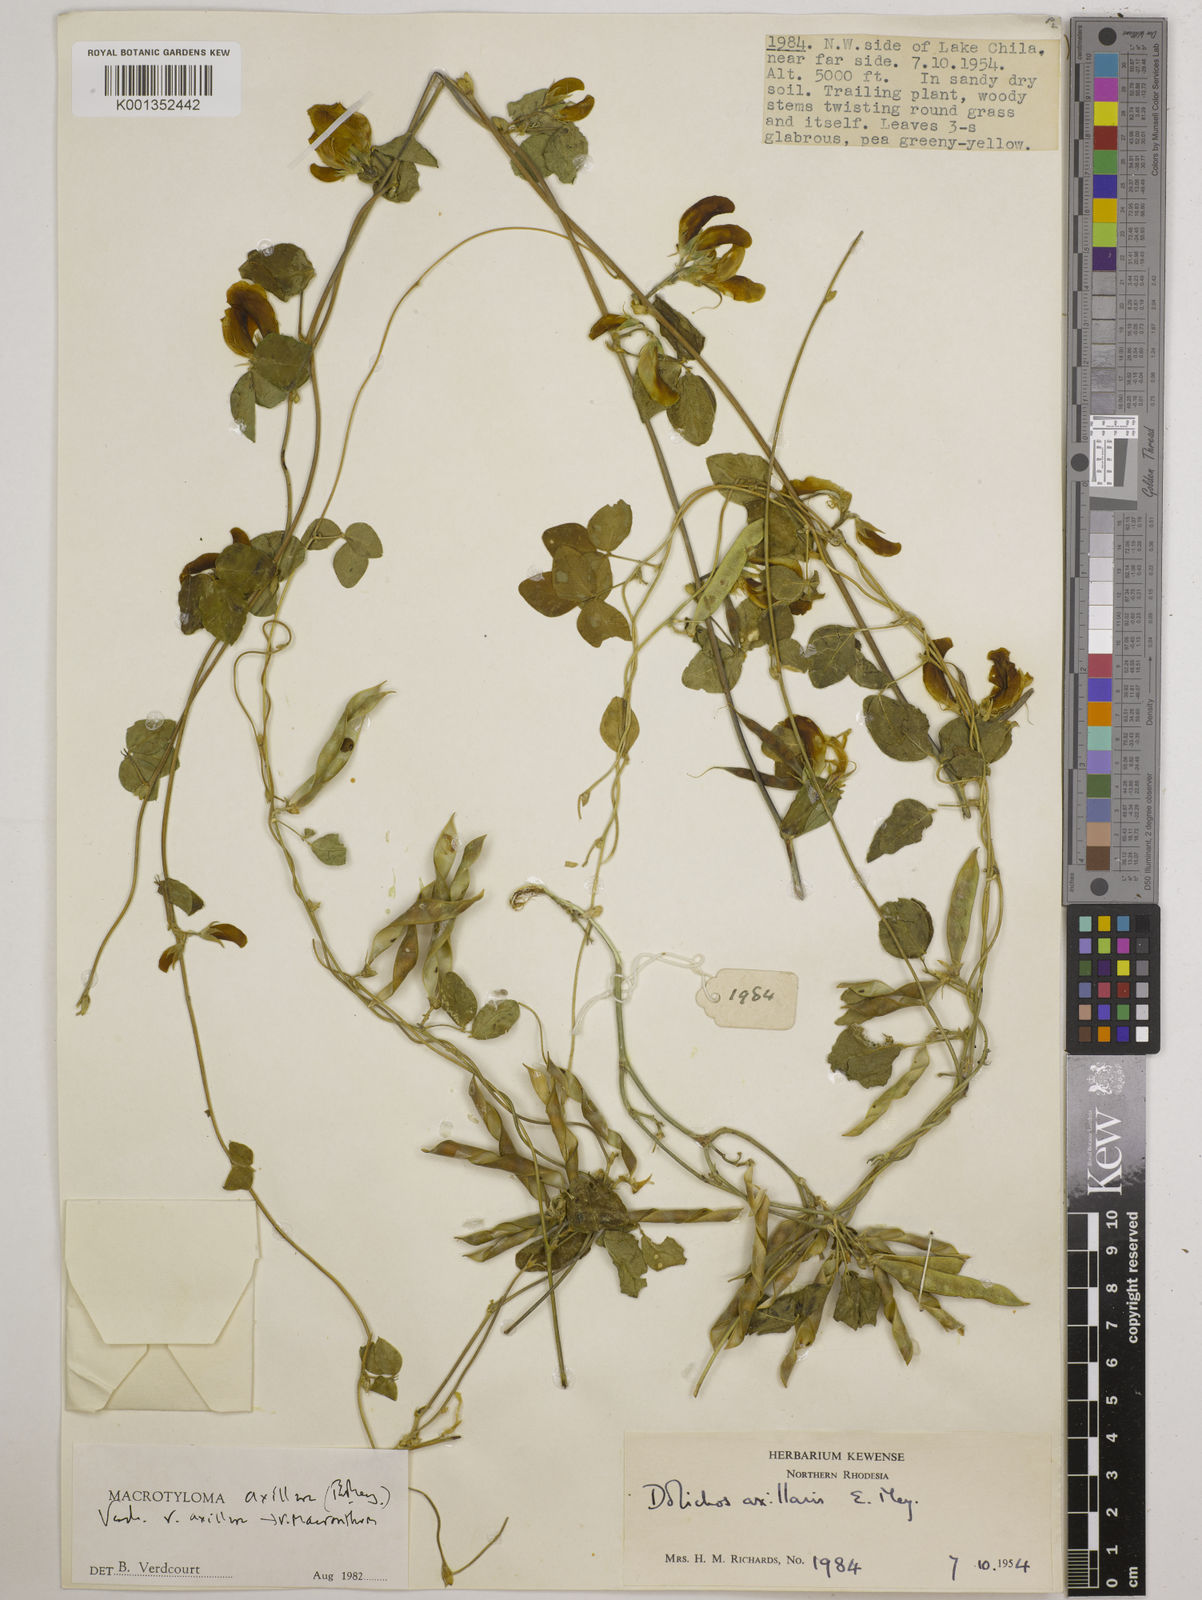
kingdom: Plantae
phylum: Tracheophyta
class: Magnoliopsida
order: Fabales
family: Fabaceae
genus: Macrotyloma
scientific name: Macrotyloma axillare
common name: Perennial horsegram
